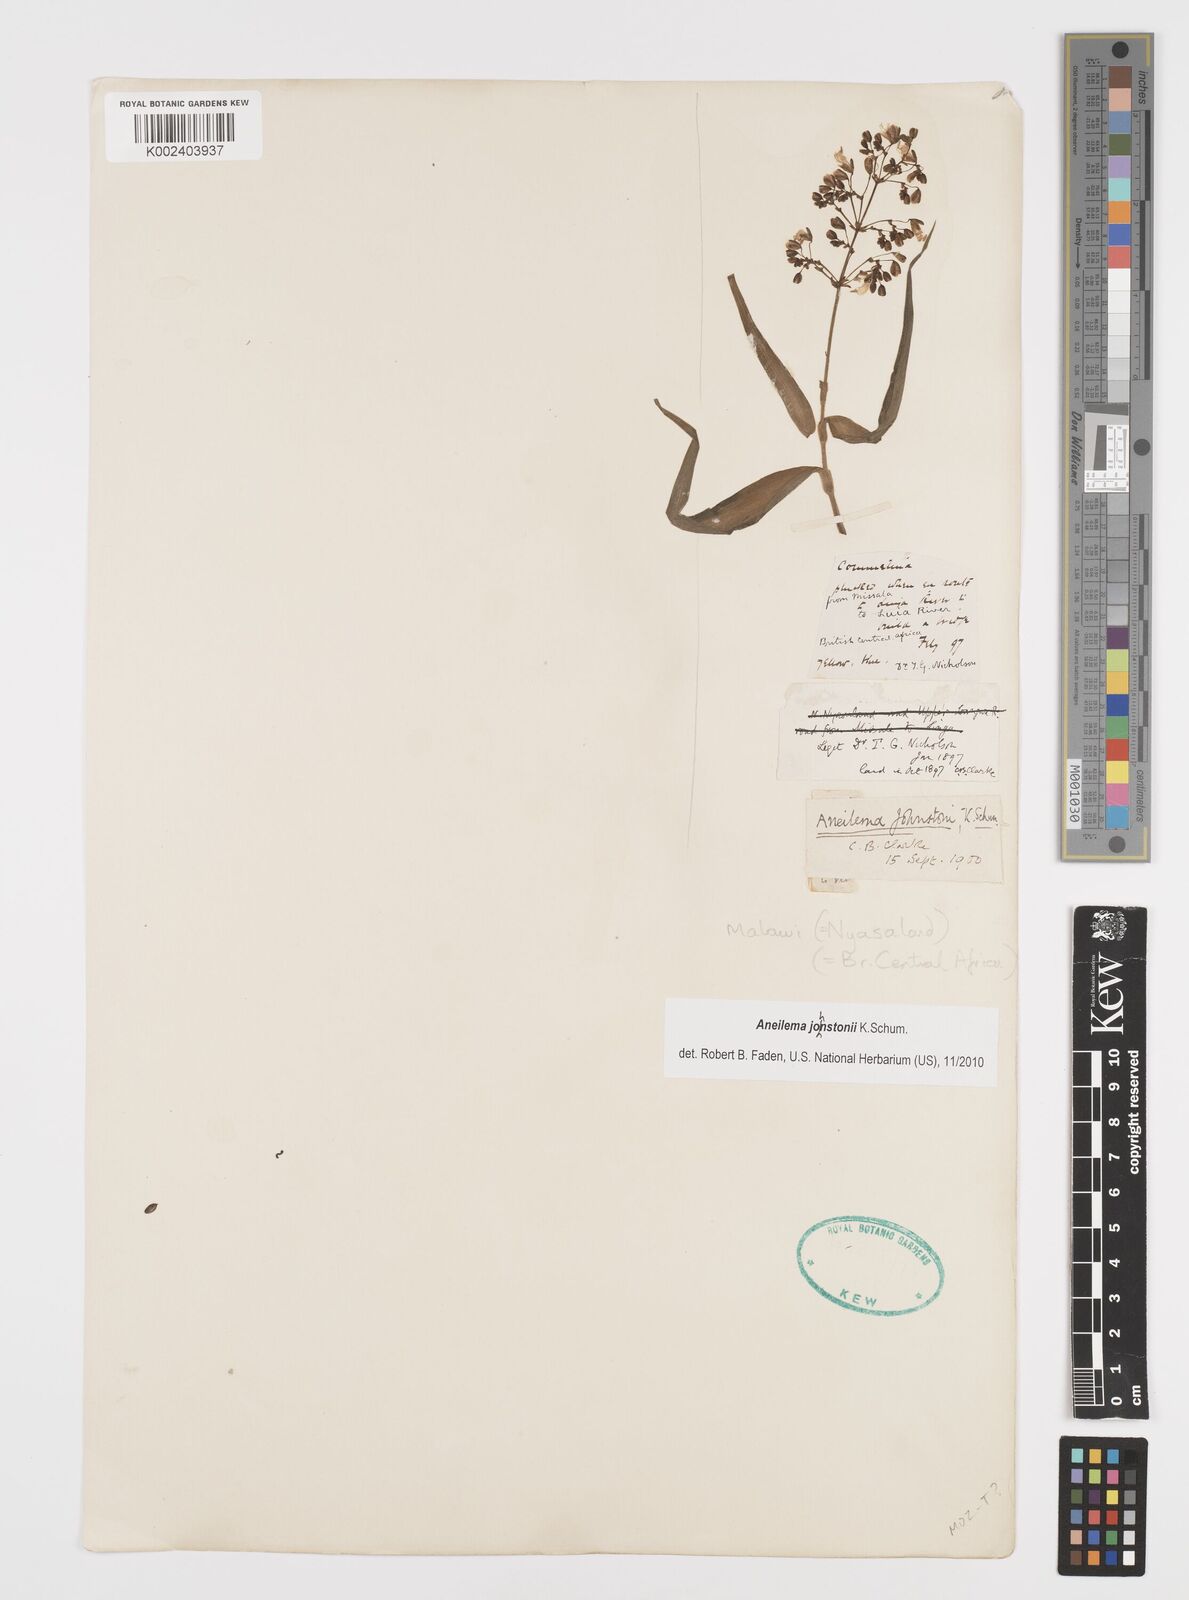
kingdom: Plantae
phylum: Tracheophyta
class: Liliopsida
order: Commelinales
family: Commelinaceae
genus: Aneilema
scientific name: Aneilema johnstonii
